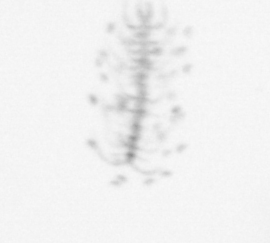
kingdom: Chromista
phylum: Ochrophyta
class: Bacillariophyceae
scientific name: Bacillariophyceae
